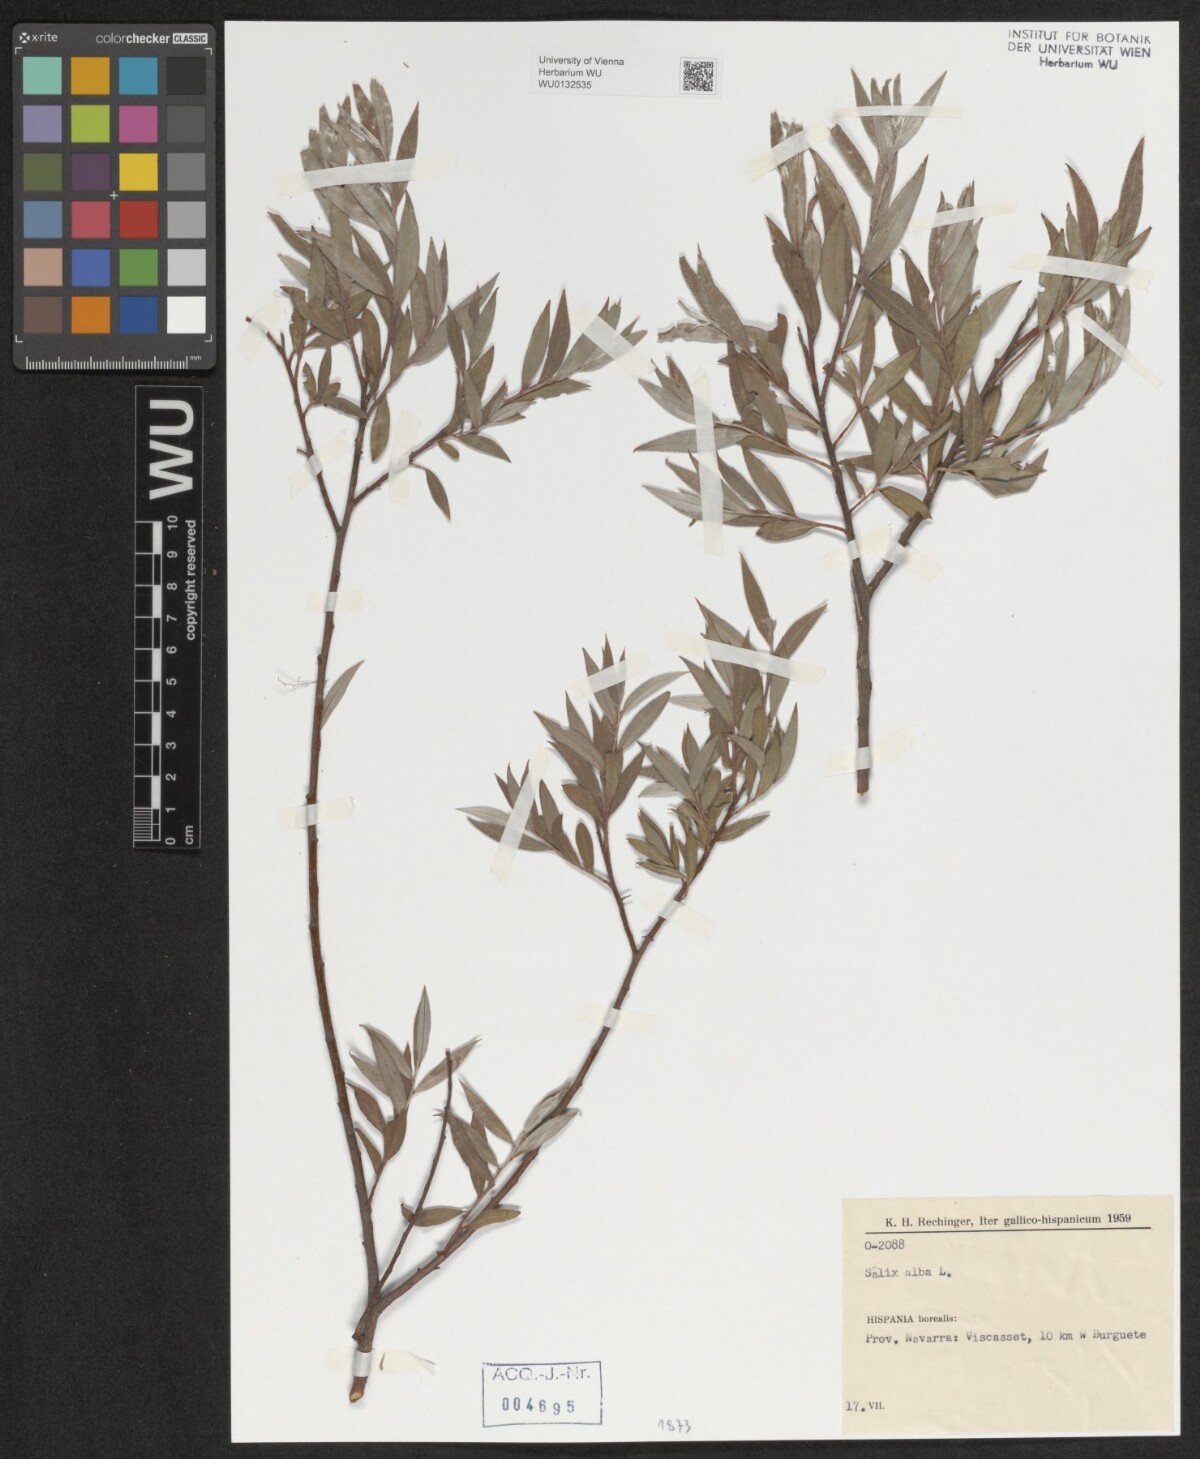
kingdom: Plantae
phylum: Tracheophyta
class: Magnoliopsida
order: Malpighiales
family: Salicaceae
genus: Salix
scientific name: Salix alba
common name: White willow
